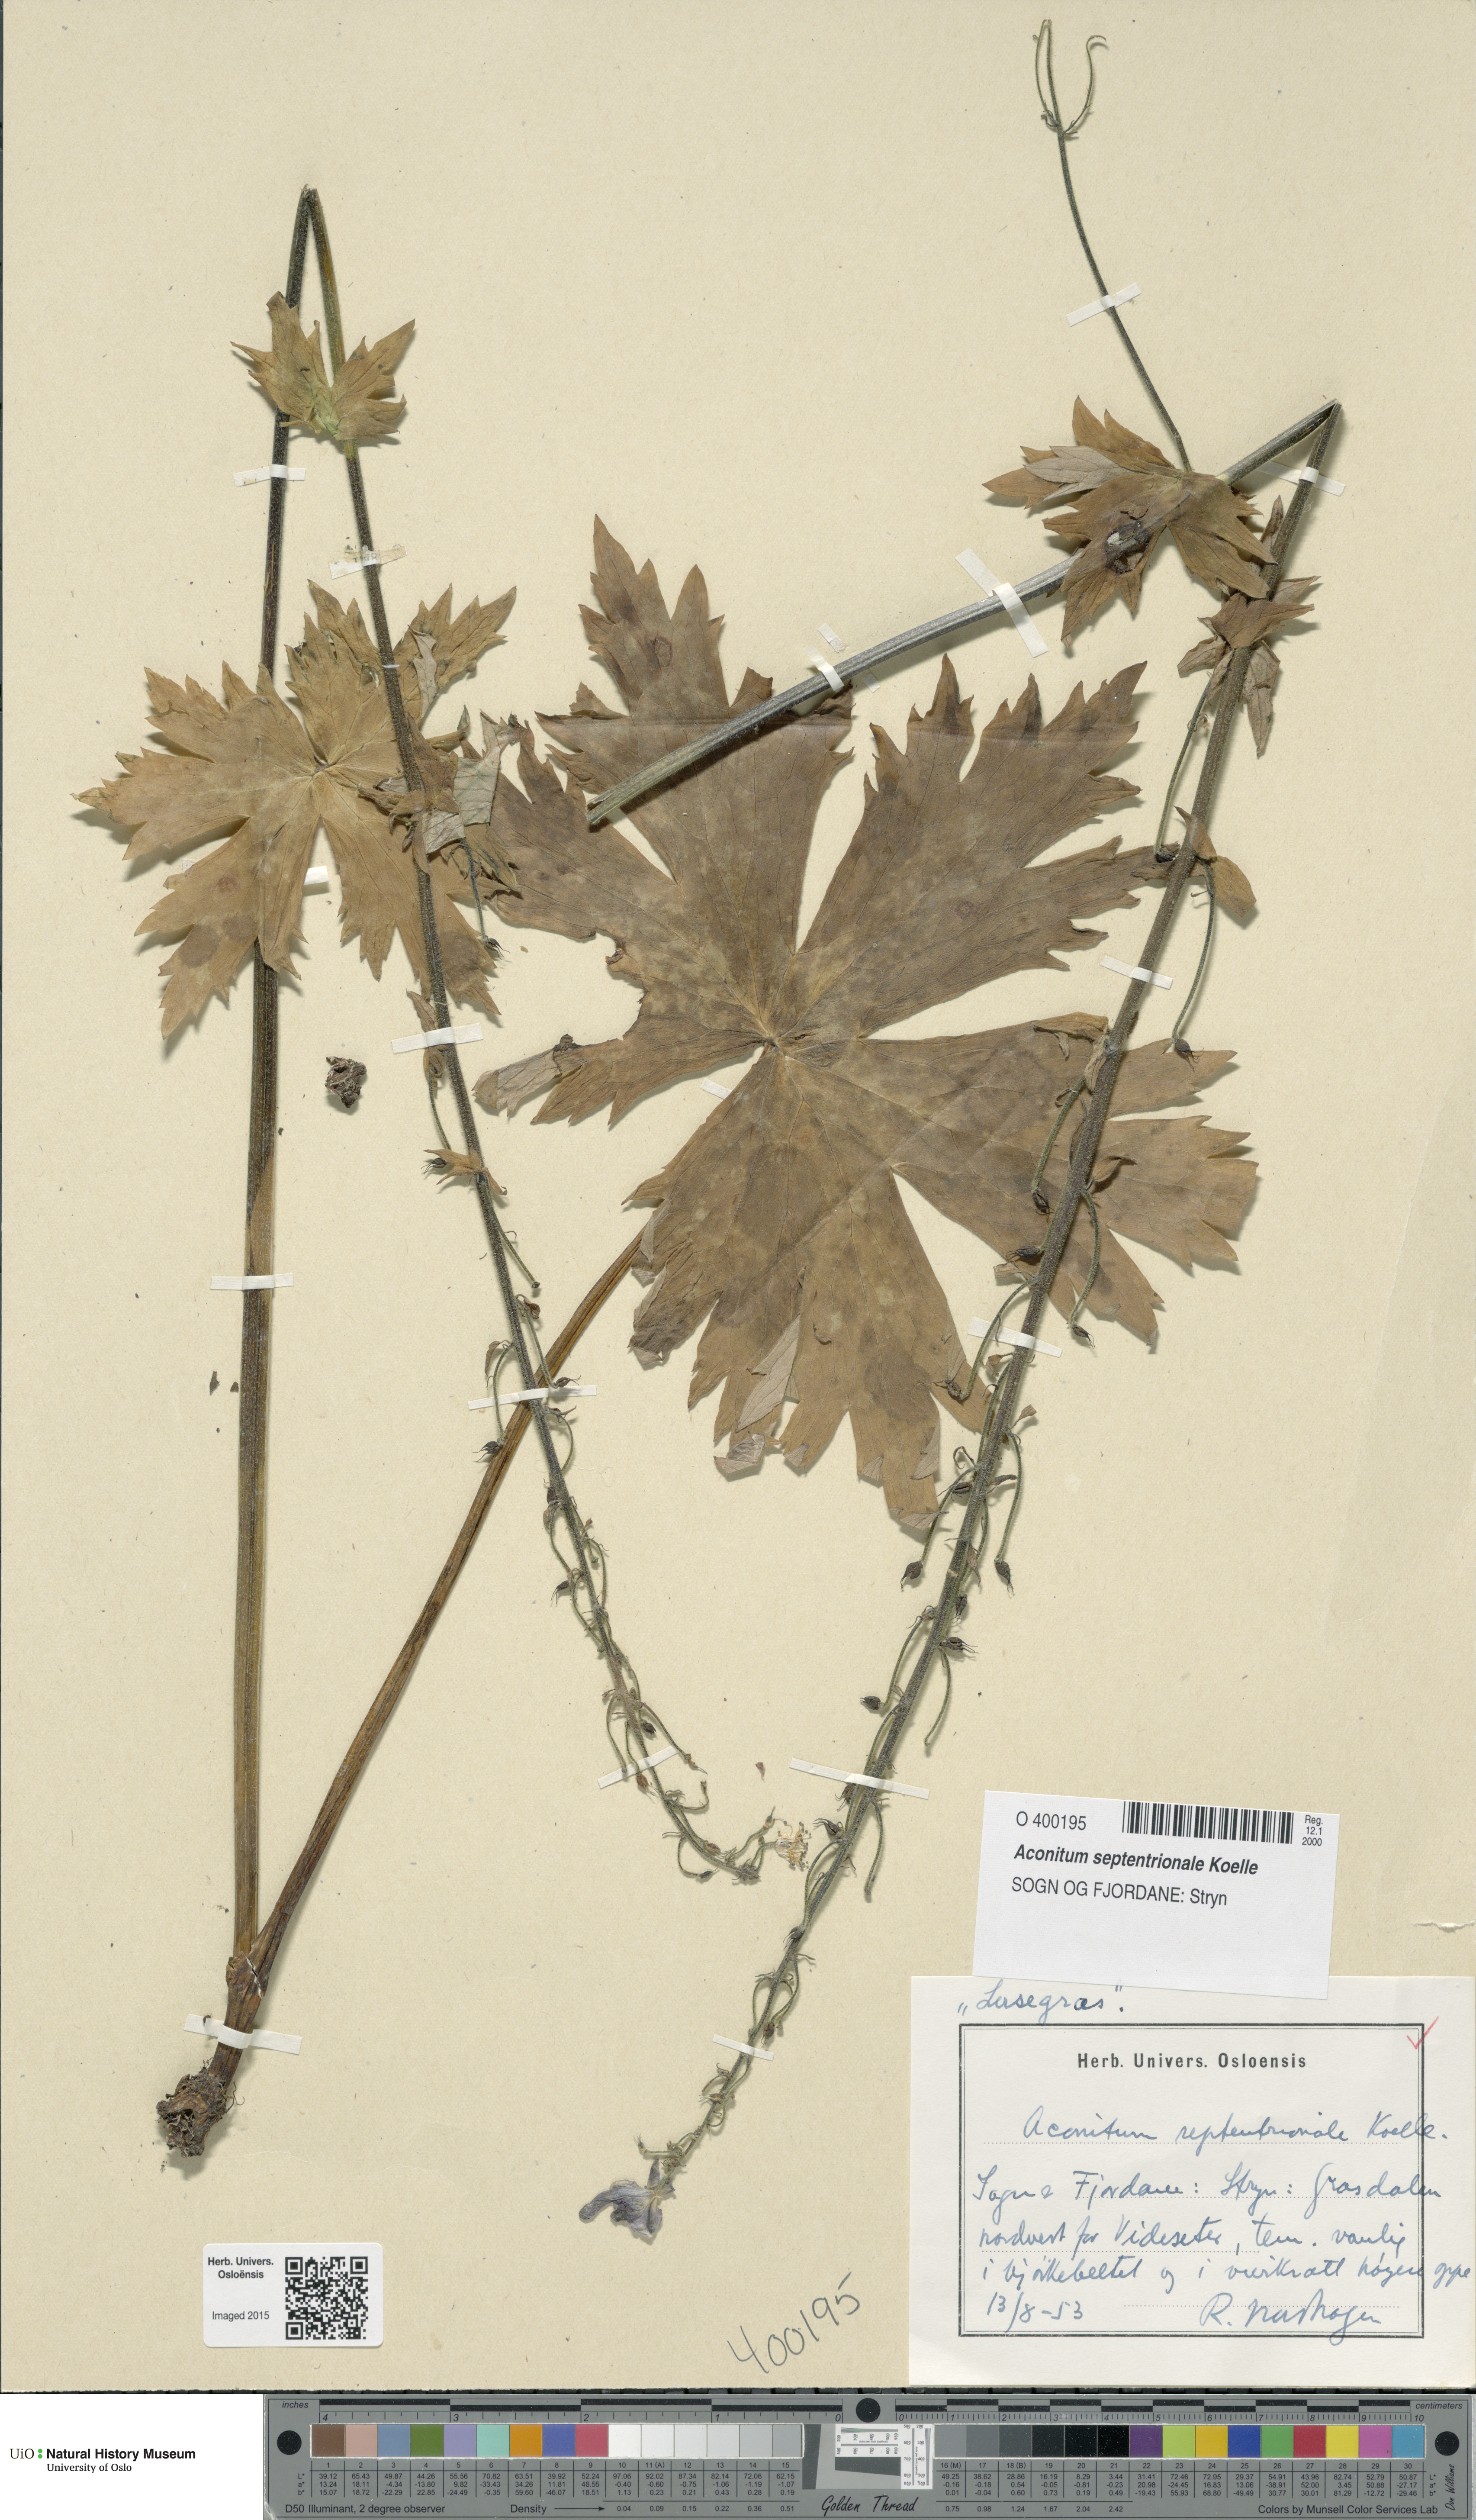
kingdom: Plantae
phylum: Tracheophyta
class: Magnoliopsida
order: Ranunculales
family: Ranunculaceae
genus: Aconitum
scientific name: Aconitum septentrionale
